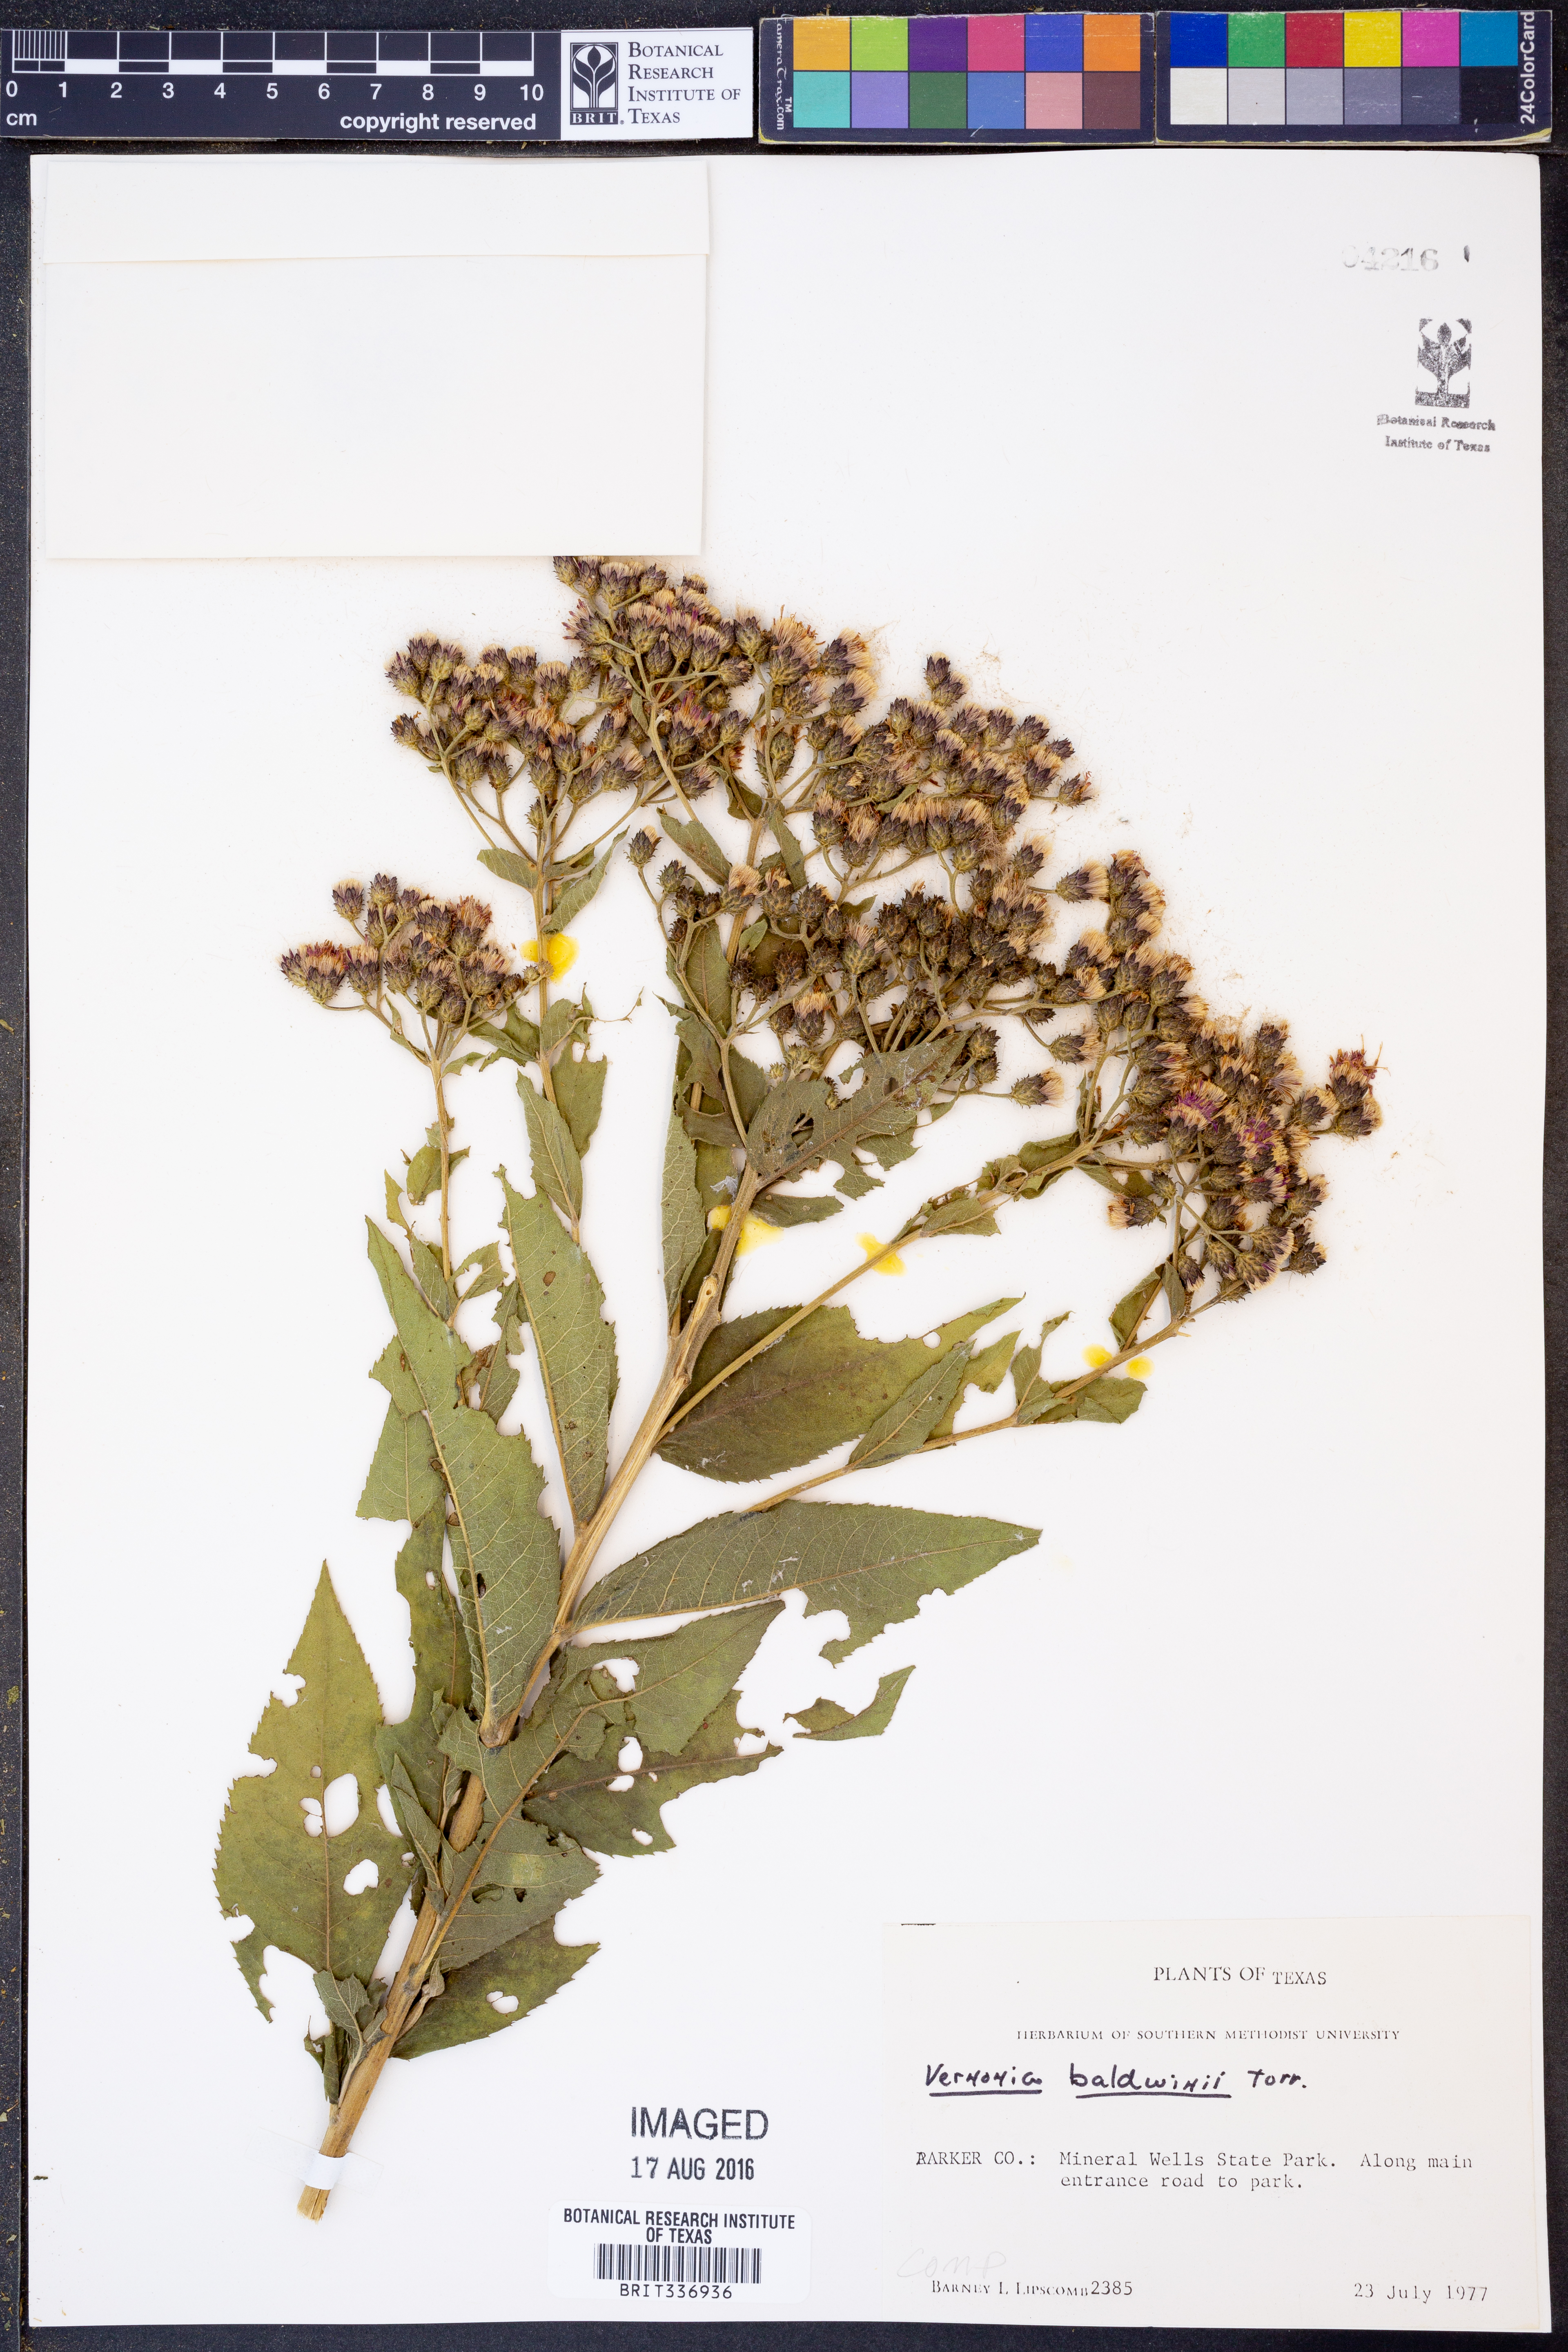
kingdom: Plantae
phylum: Tracheophyta
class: Magnoliopsida
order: Asterales
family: Asteraceae
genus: Vernonia
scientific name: Vernonia baldwinii
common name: Western ironweed
